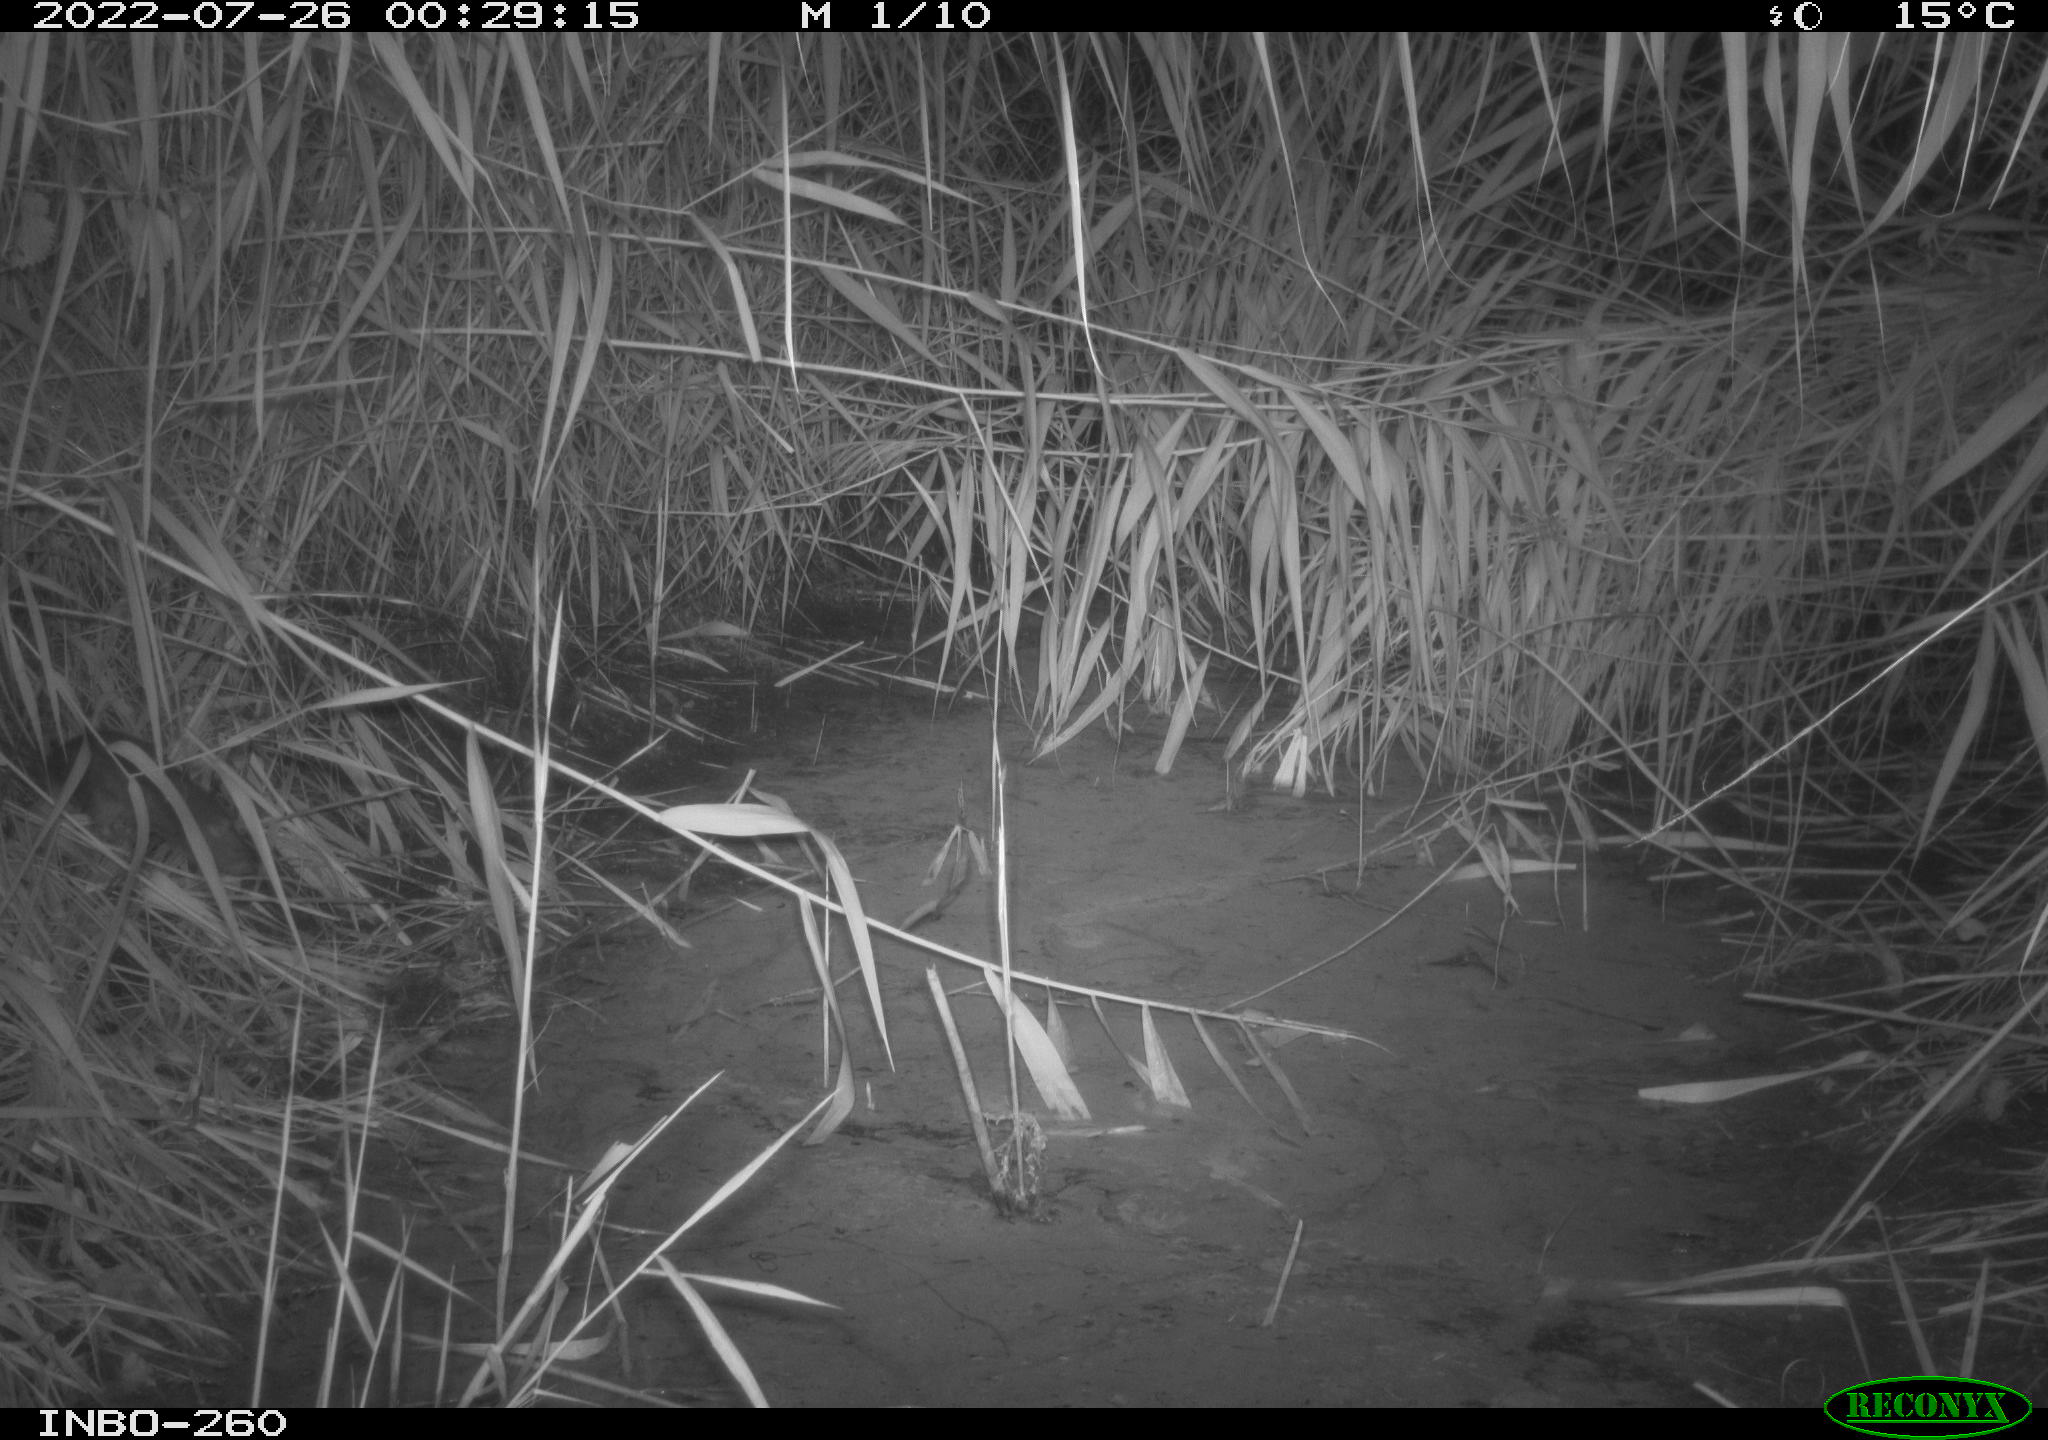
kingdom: Animalia
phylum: Chordata
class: Mammalia
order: Rodentia
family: Muridae
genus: Rattus
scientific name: Rattus norvegicus
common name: Brown rat
